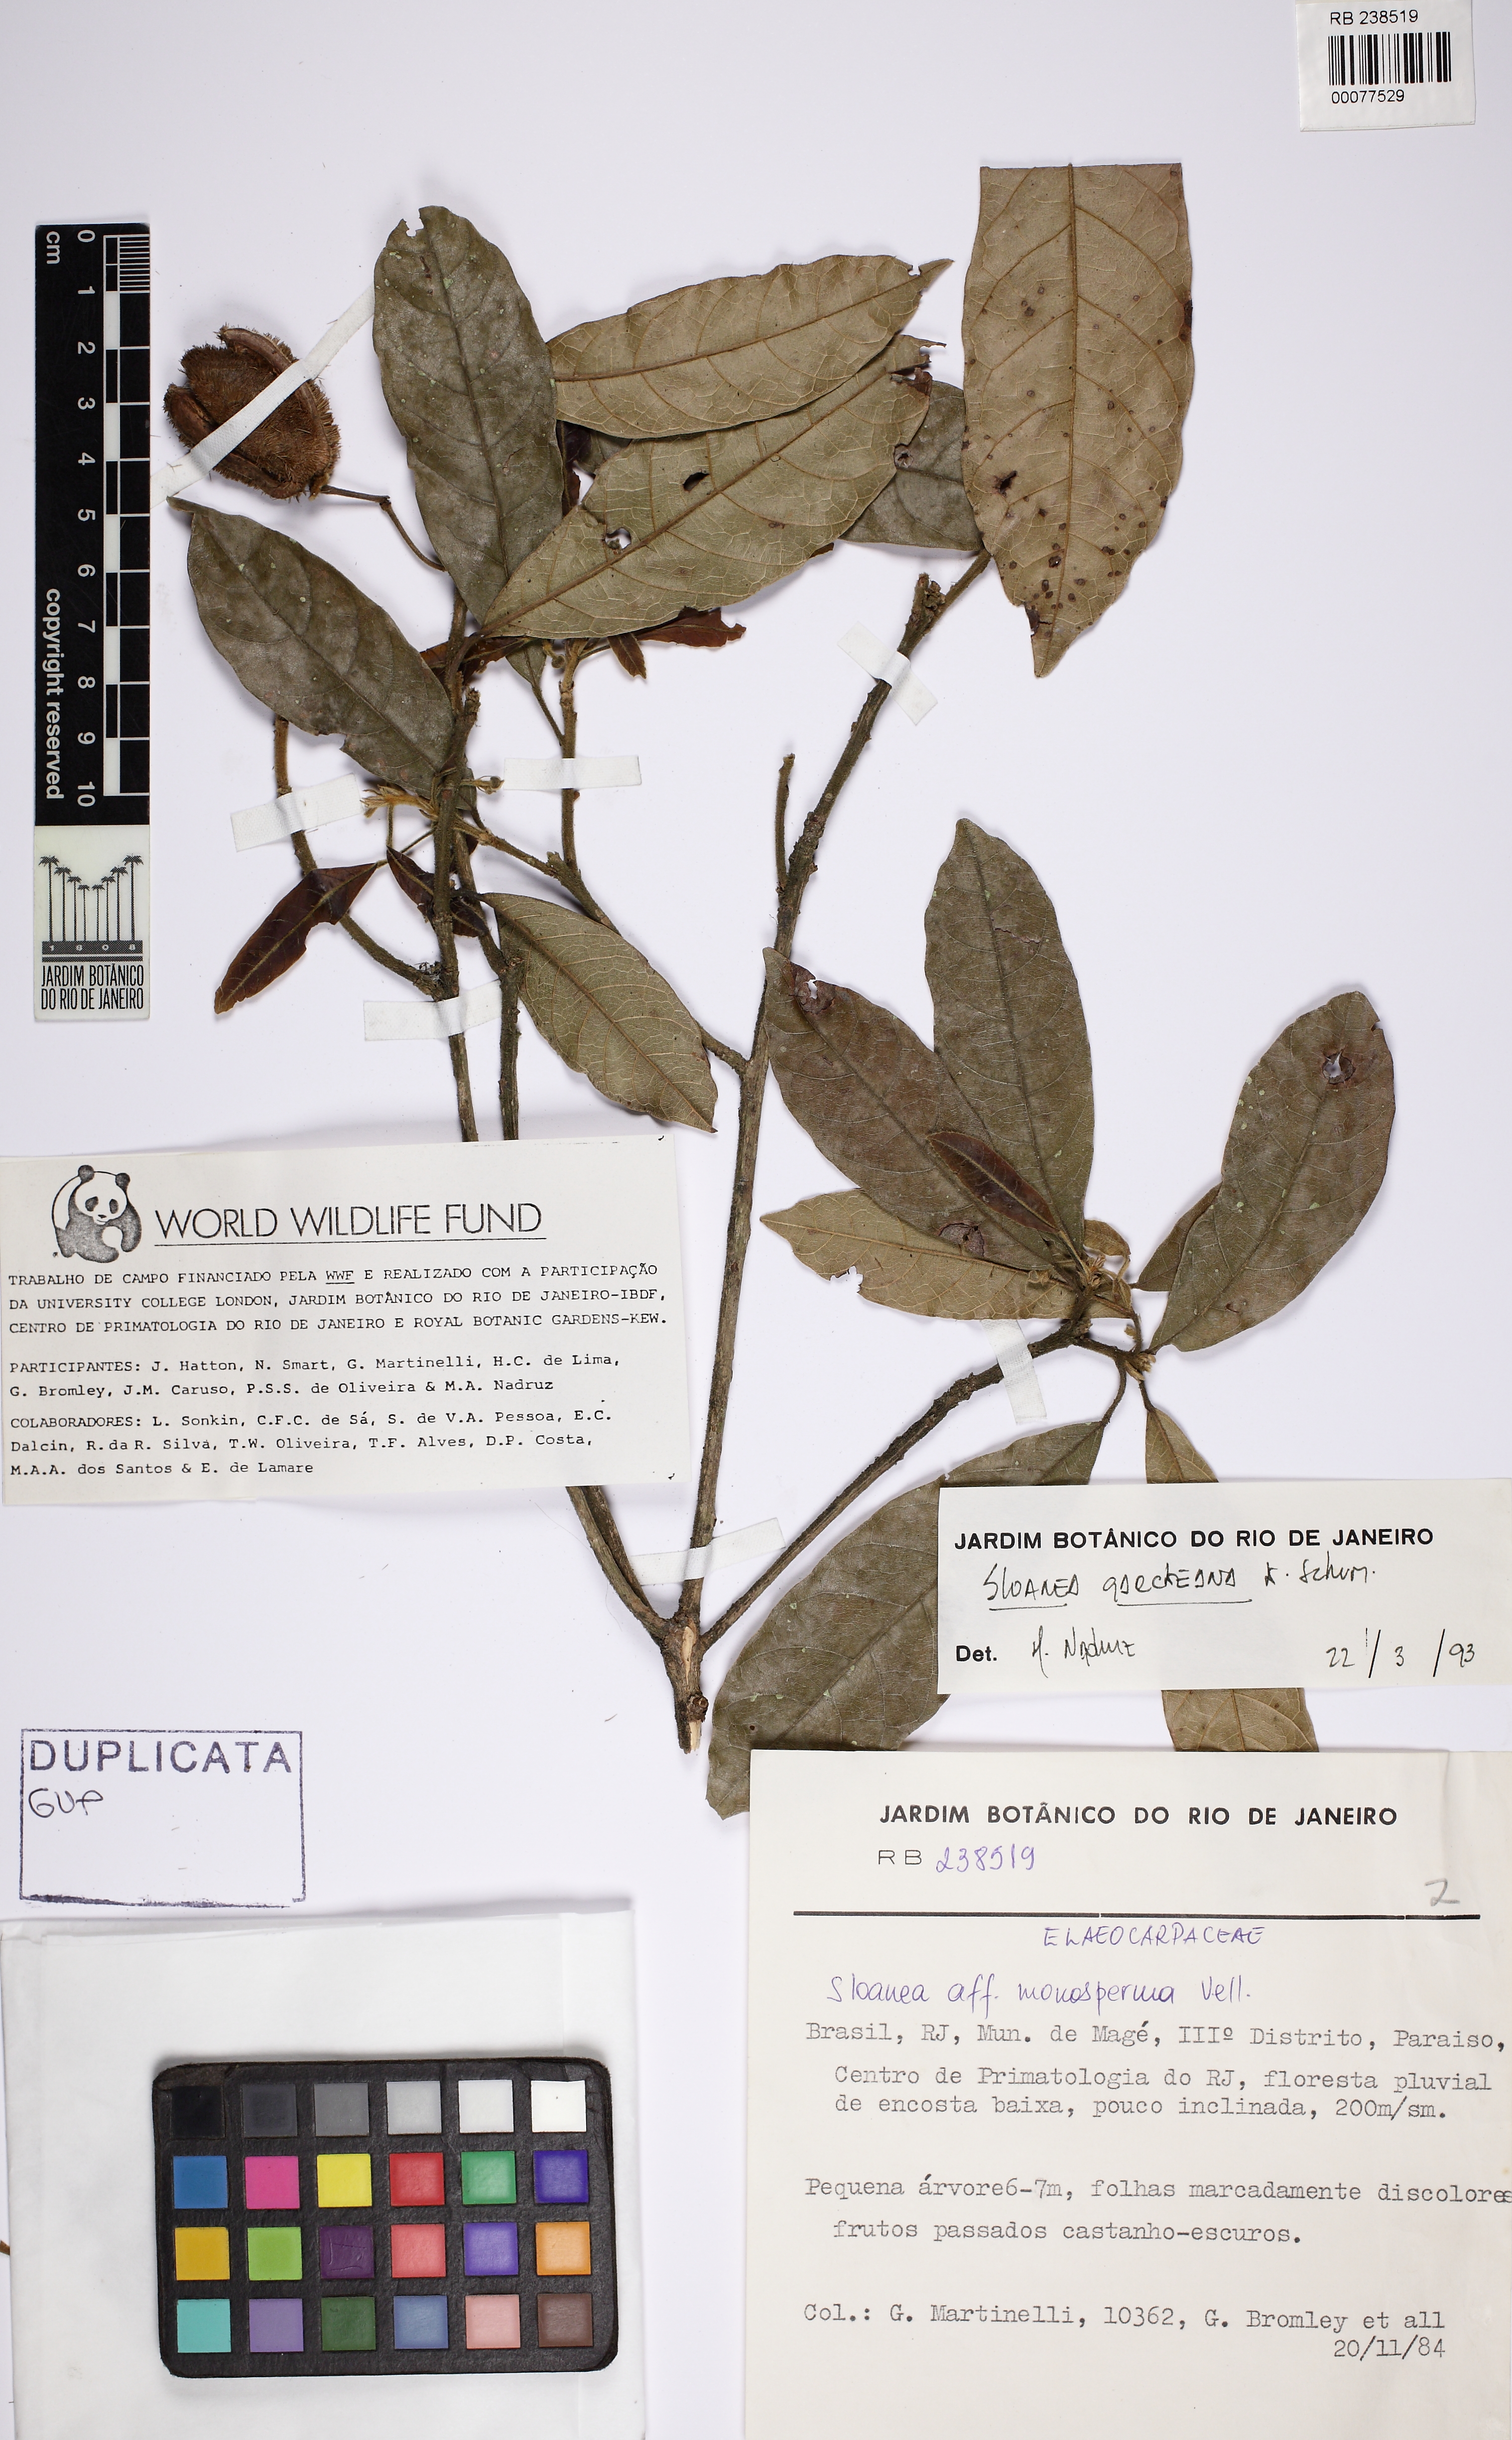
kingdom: Plantae
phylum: Tracheophyta
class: Magnoliopsida
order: Oxalidales
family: Elaeocarpaceae
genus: Sloanea
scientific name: Sloanea hirsuta
